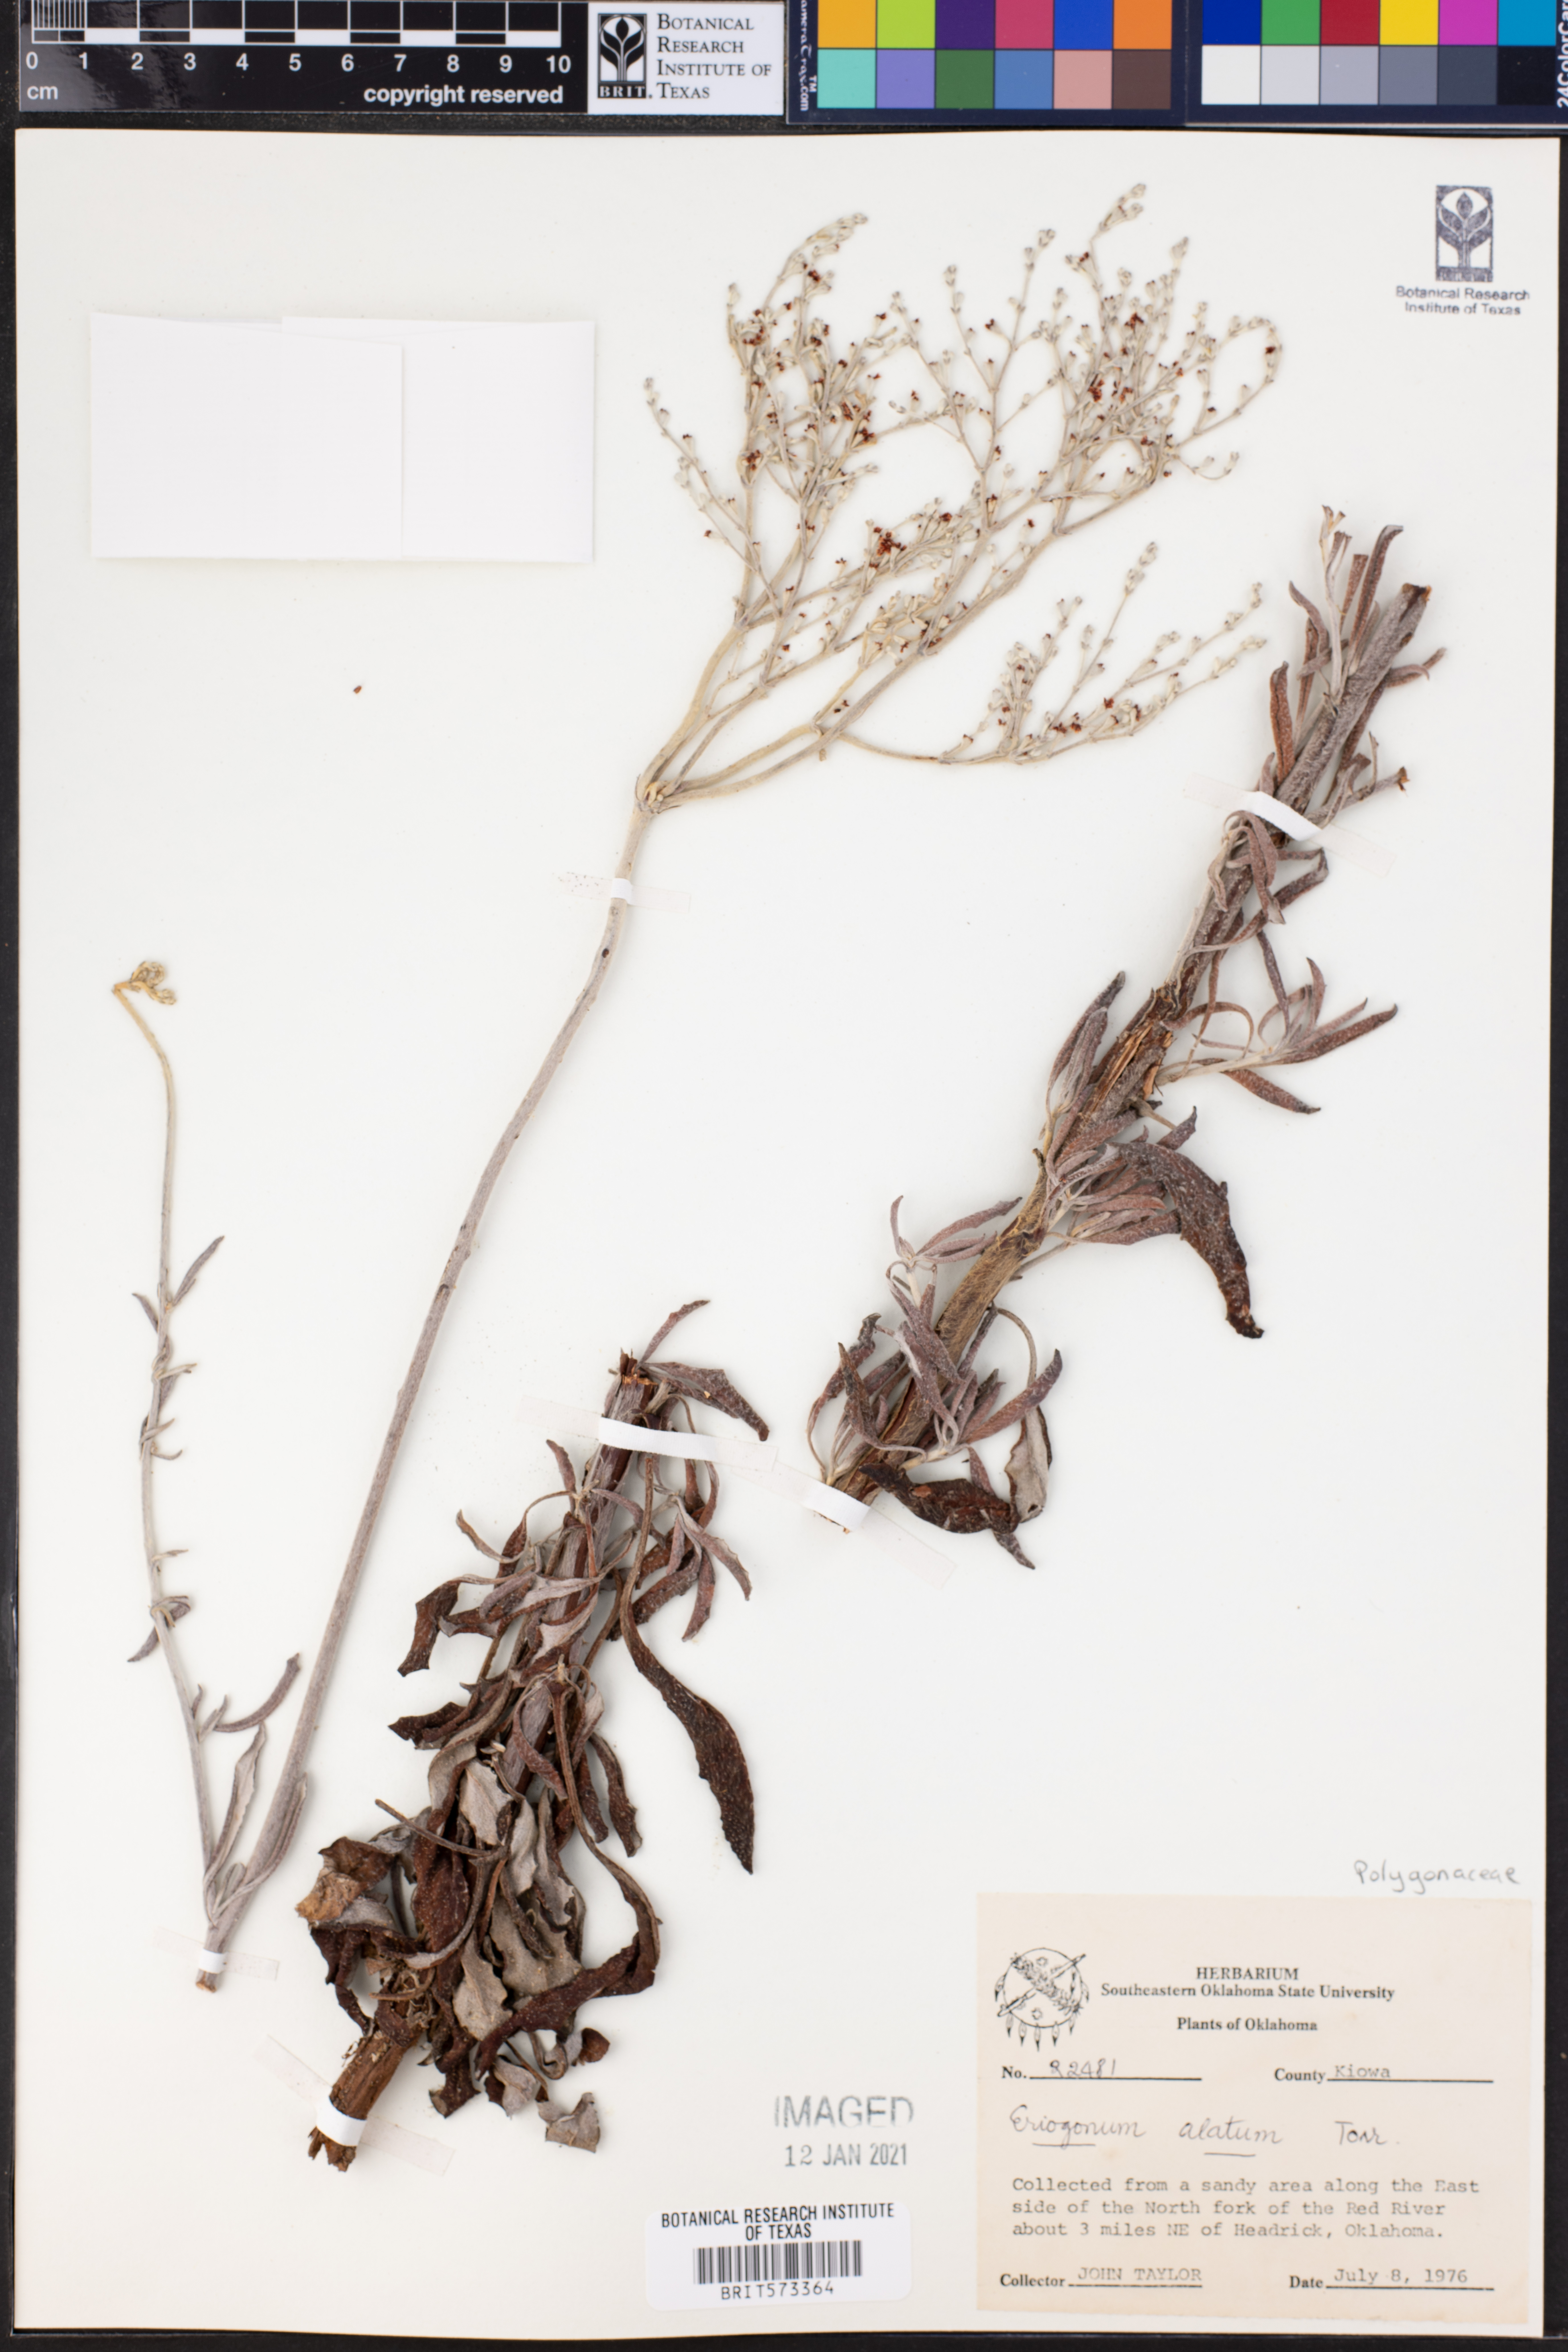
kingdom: Plantae
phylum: Tracheophyta
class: Magnoliopsida
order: Caryophyllales
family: Polygonaceae
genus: Eriogonum
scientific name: Eriogonum alatum
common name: Winged eriogonum
